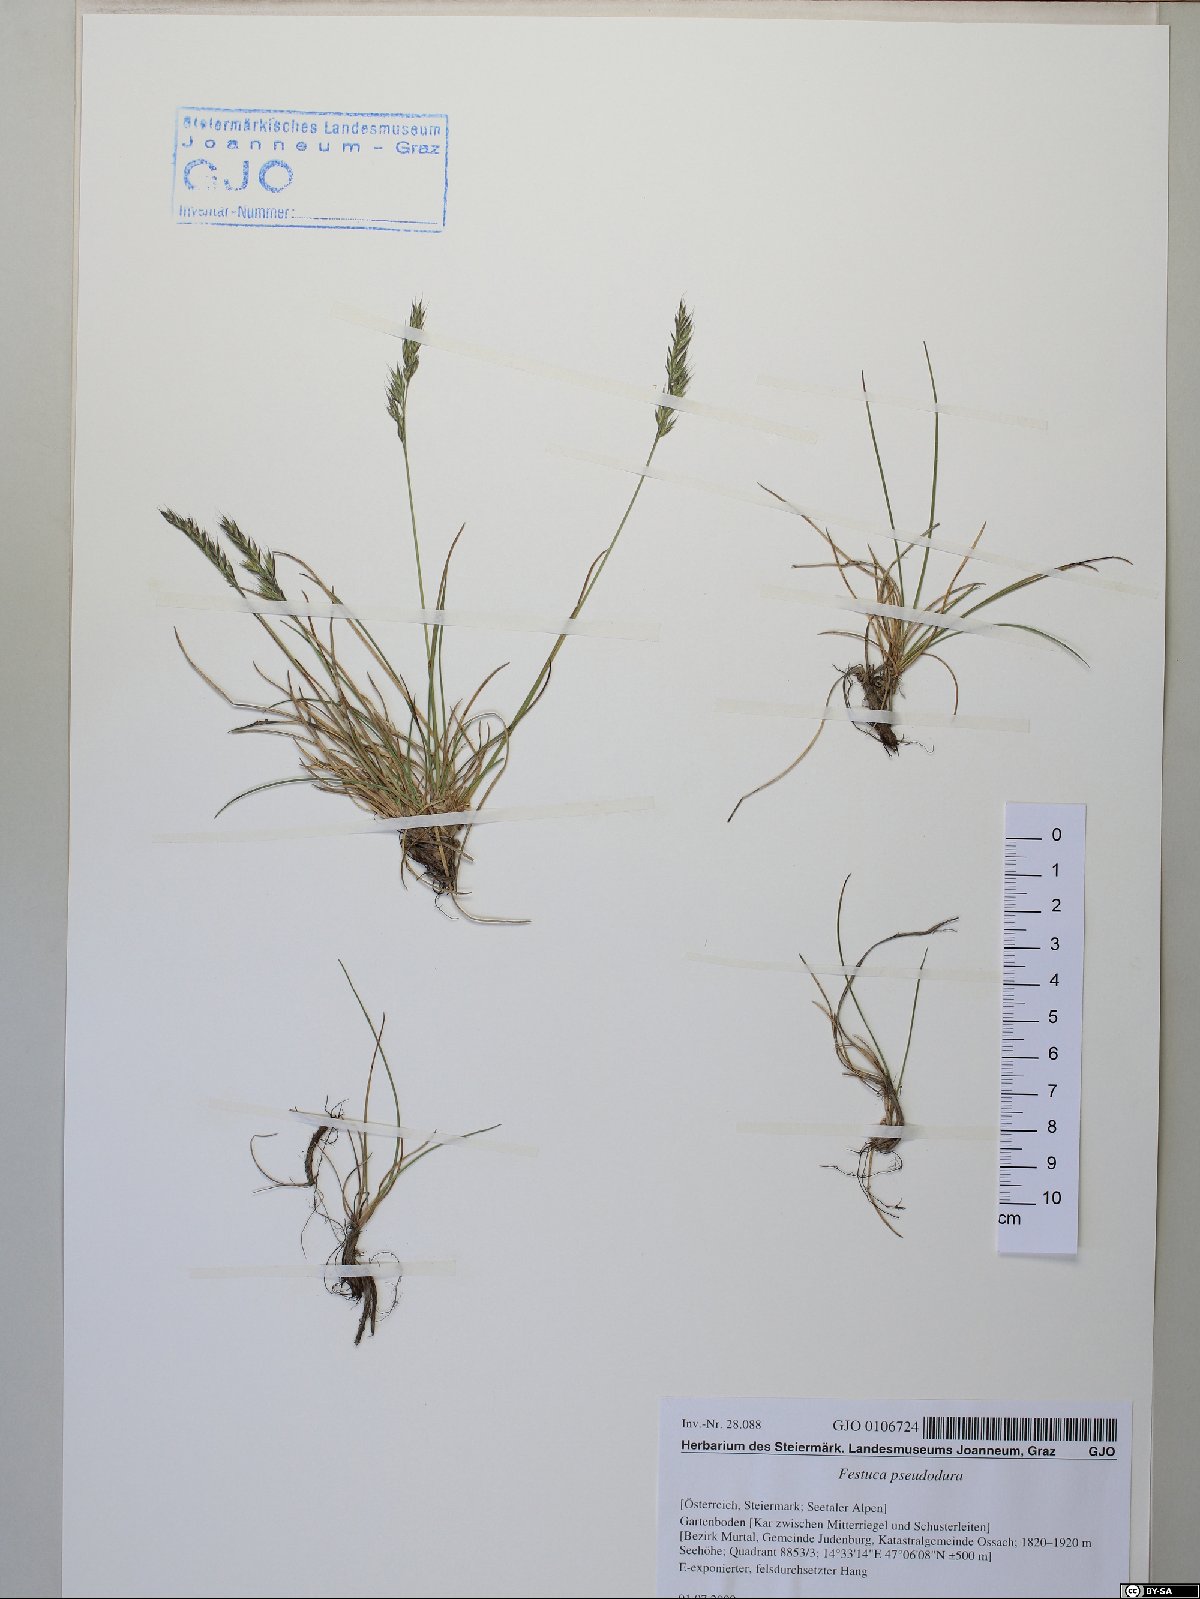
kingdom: Plantae
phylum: Tracheophyta
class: Liliopsida
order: Poales
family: Poaceae
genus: Festuca
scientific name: Festuca pseudodura
